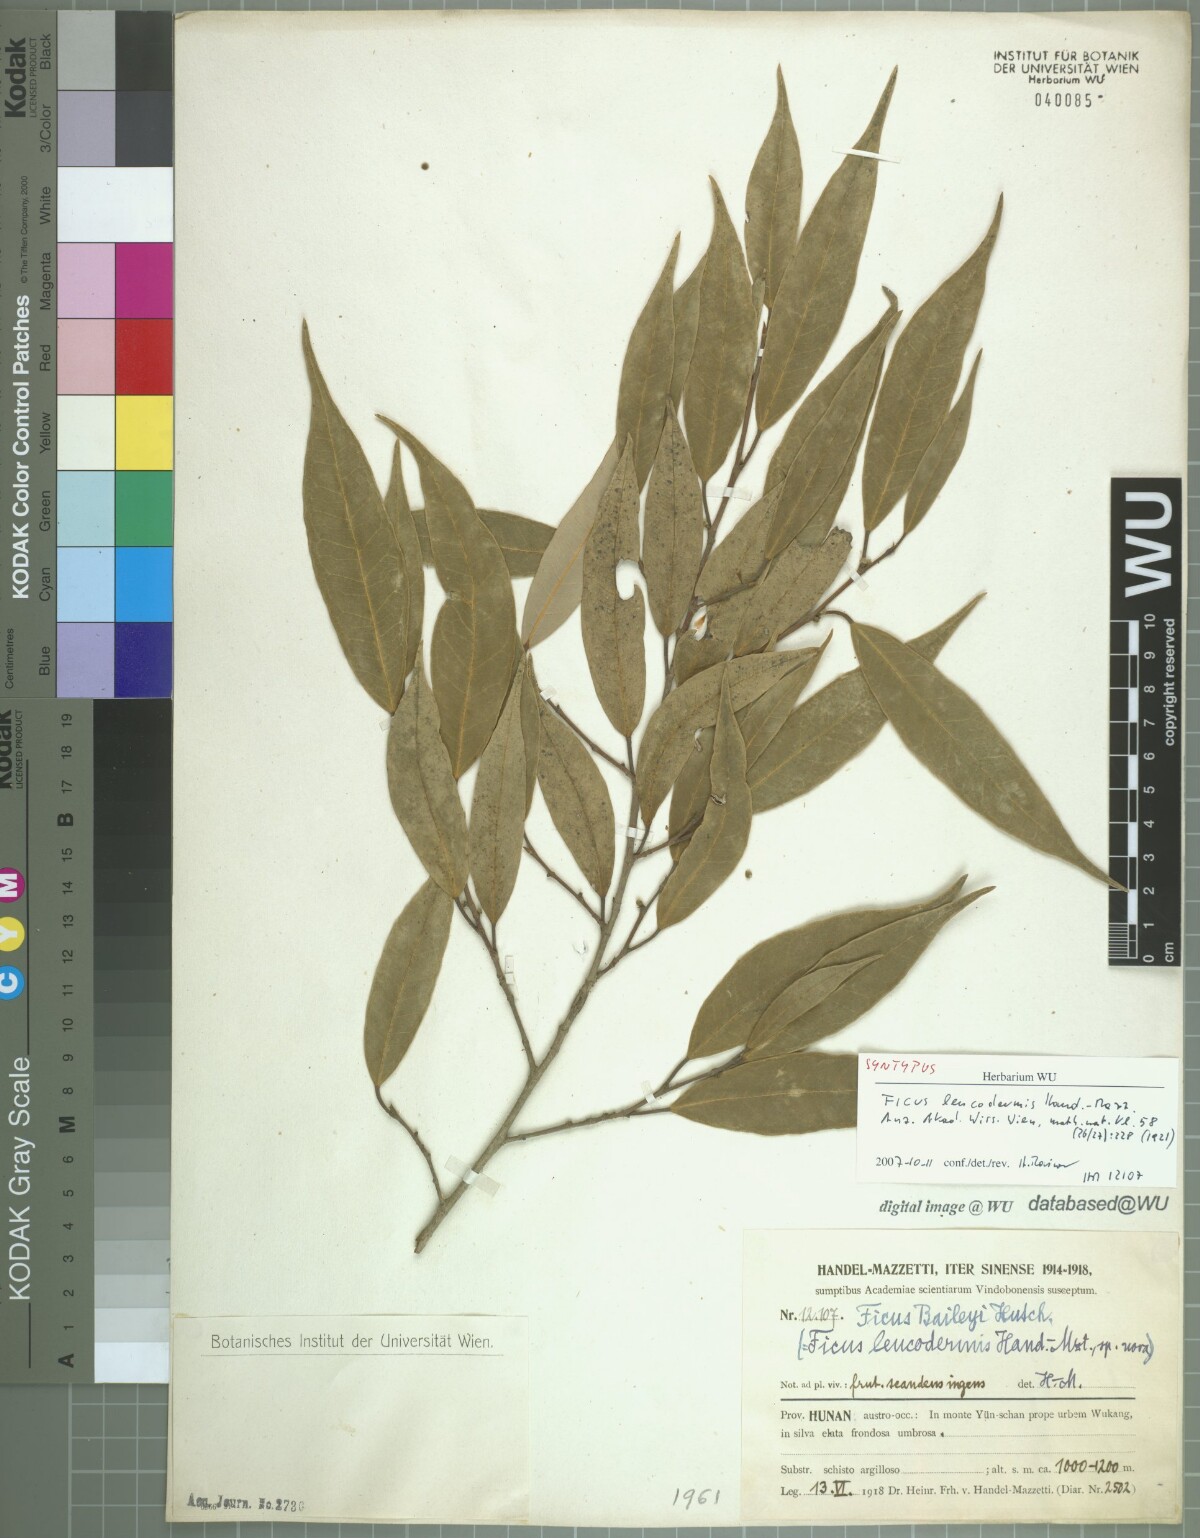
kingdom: Plantae
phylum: Tracheophyta
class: Magnoliopsida
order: Rosales
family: Moraceae
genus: Ficus
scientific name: Ficus sarmentosa
